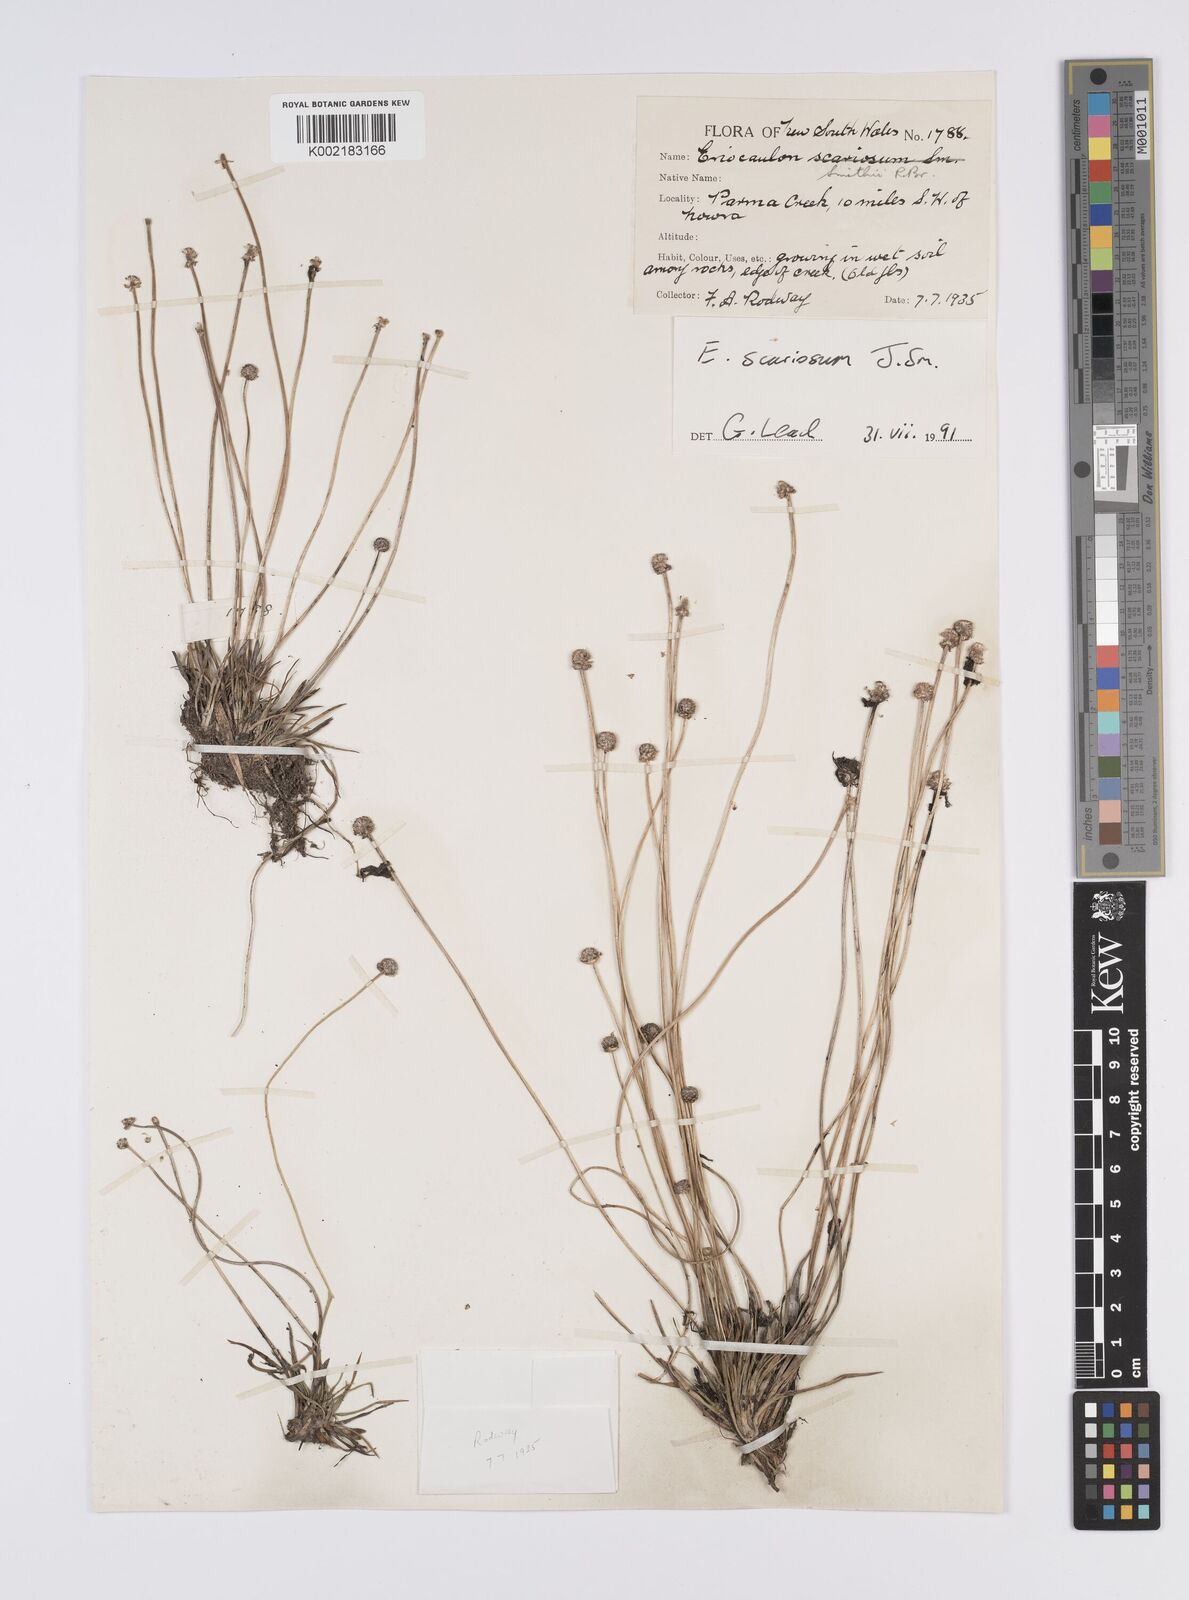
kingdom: Plantae
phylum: Tracheophyta
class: Liliopsida
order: Poales
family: Eriocaulaceae
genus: Eriocaulon
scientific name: Eriocaulon scariosum
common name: Rough pipewort
